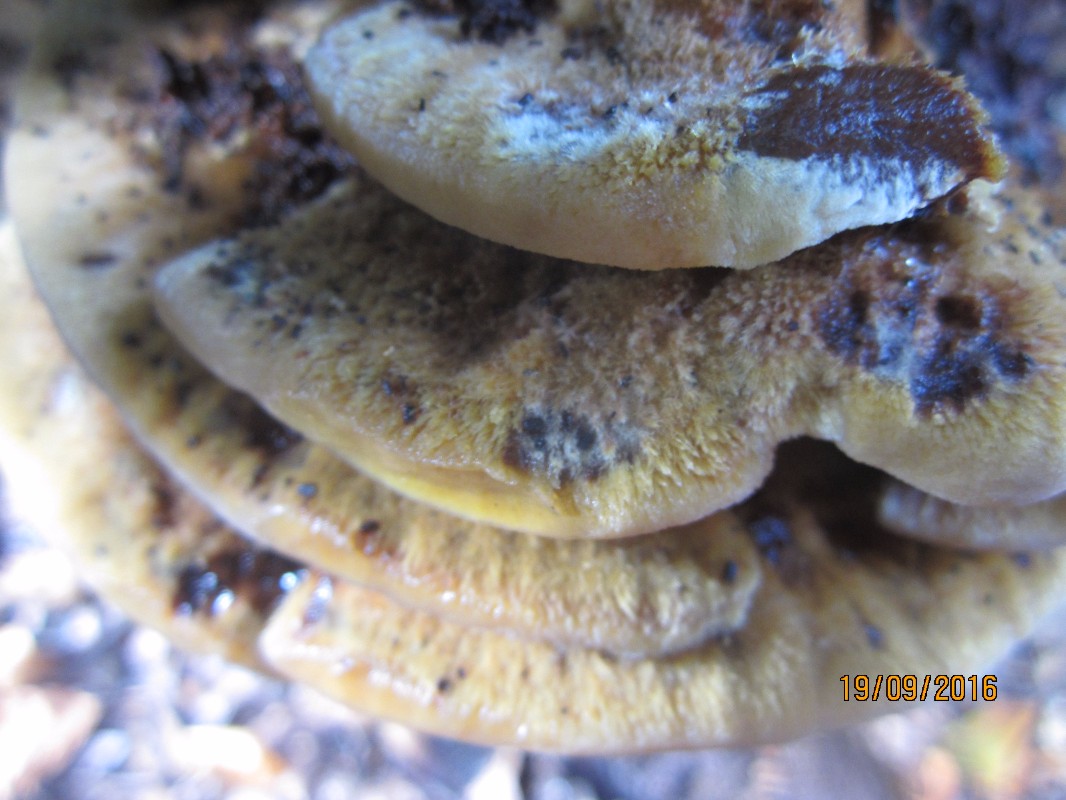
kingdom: Fungi
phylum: Basidiomycota
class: Agaricomycetes
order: Hymenochaetales
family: Hymenochaetaceae
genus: Inonotus
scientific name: Inonotus cuticularis
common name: kroghåret spejlporesvamp
